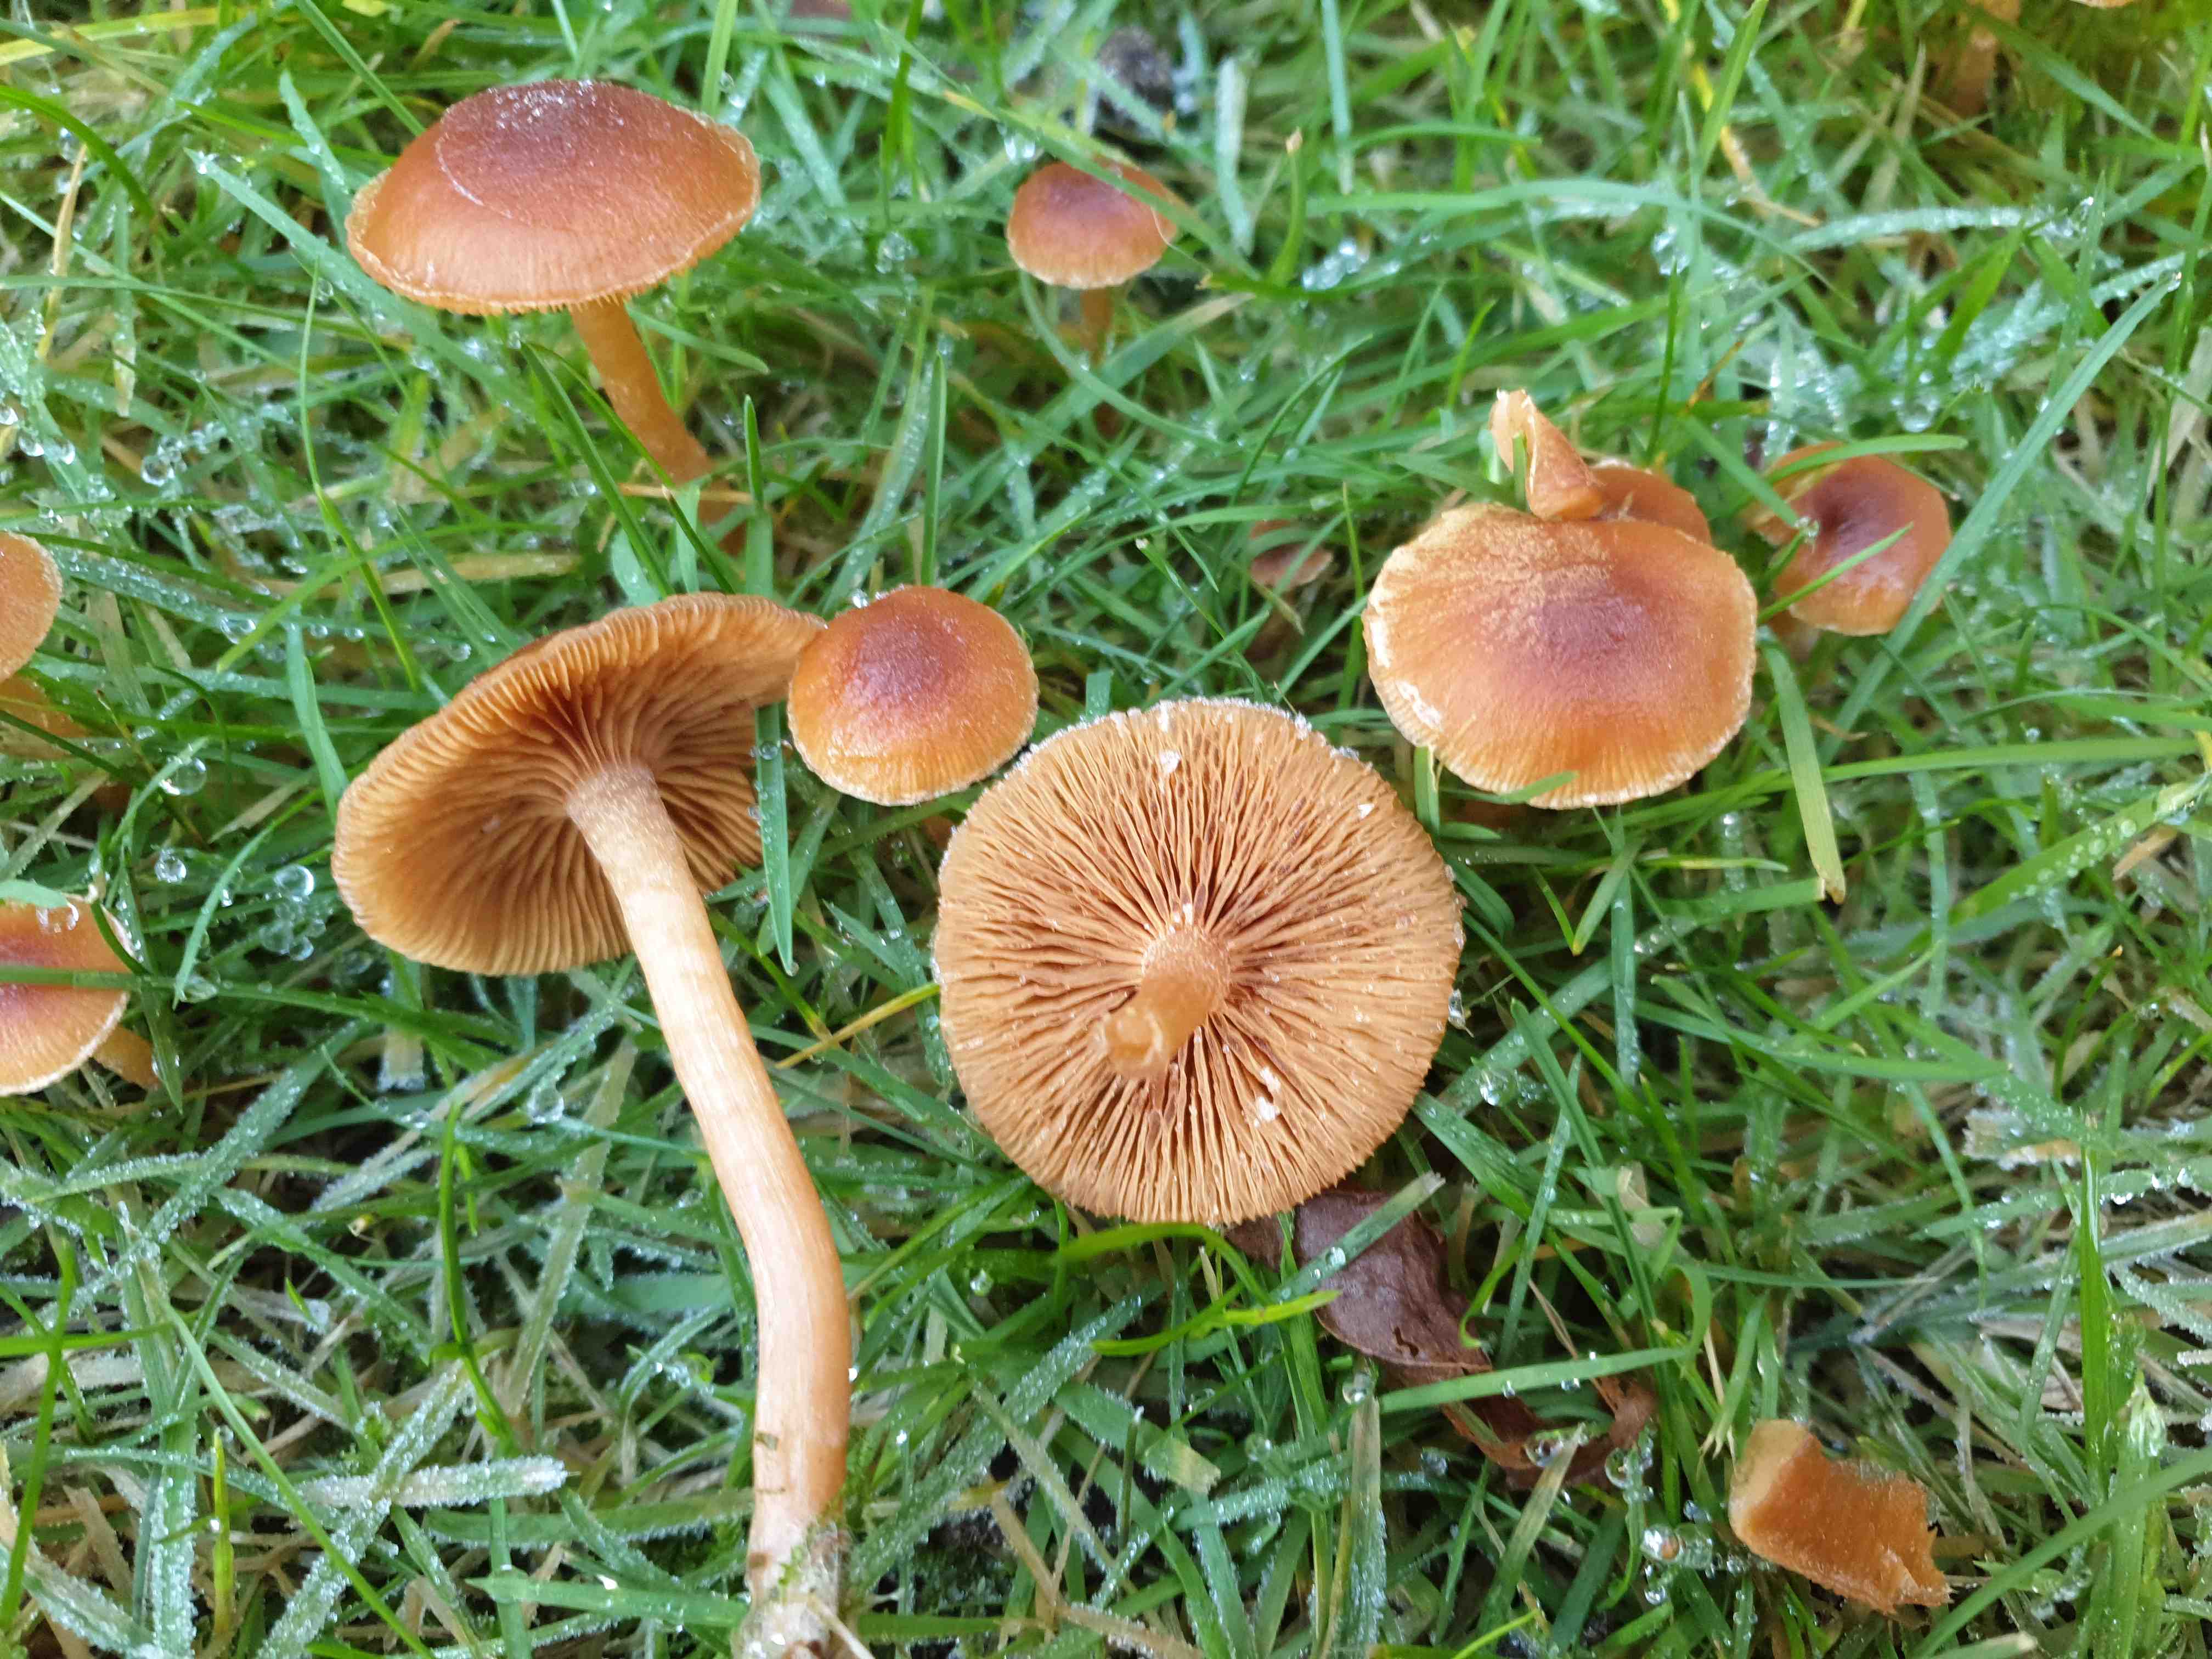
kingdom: Fungi
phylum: Basidiomycota
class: Agaricomycetes
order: Agaricales
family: Tubariaceae
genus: Tubaria
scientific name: Tubaria furfuracea
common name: kliddet fnughat
